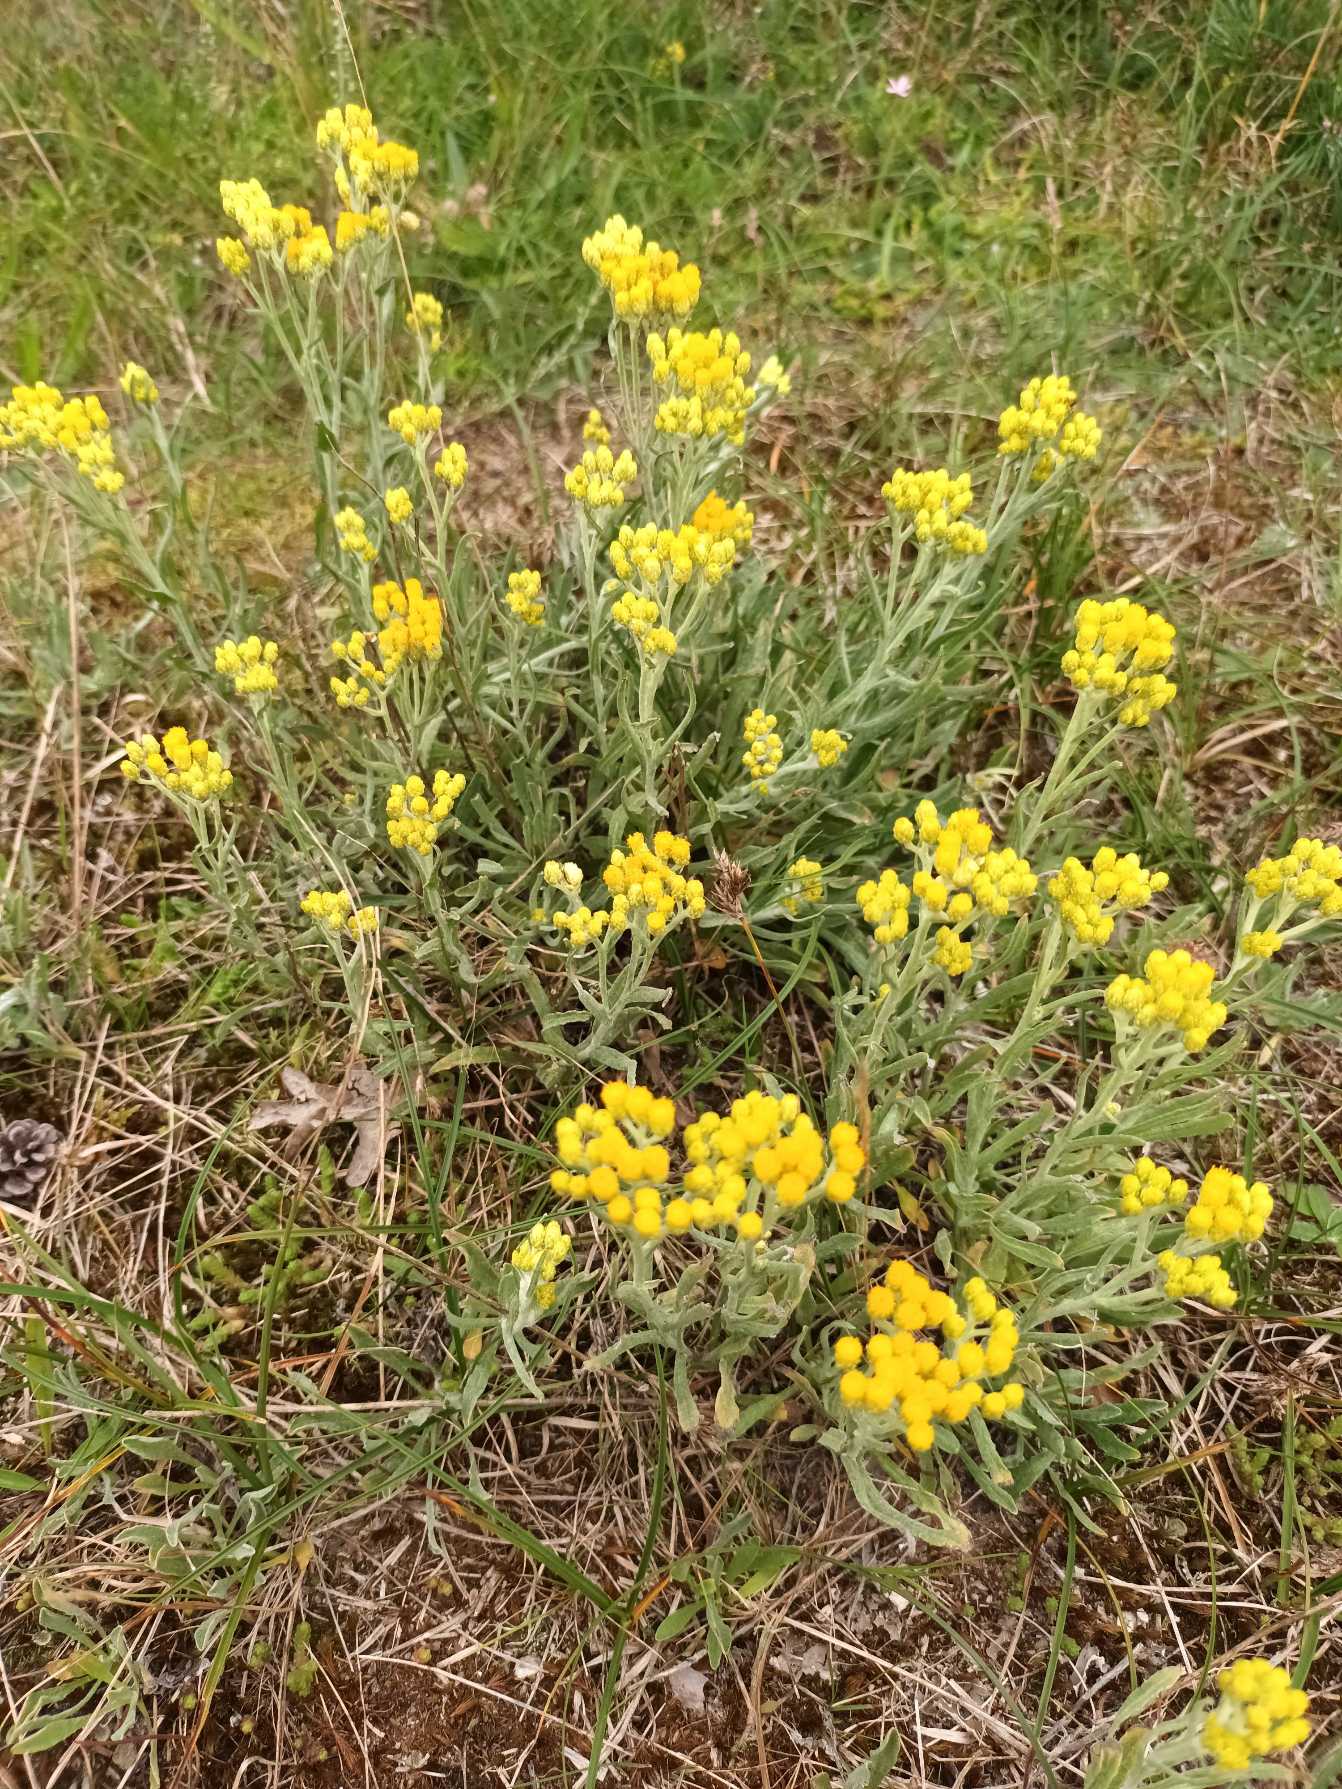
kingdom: Plantae
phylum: Tracheophyta
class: Magnoliopsida
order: Asterales
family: Asteraceae
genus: Helichrysum
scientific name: Helichrysum arenarium
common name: Gul evighedsblomst
